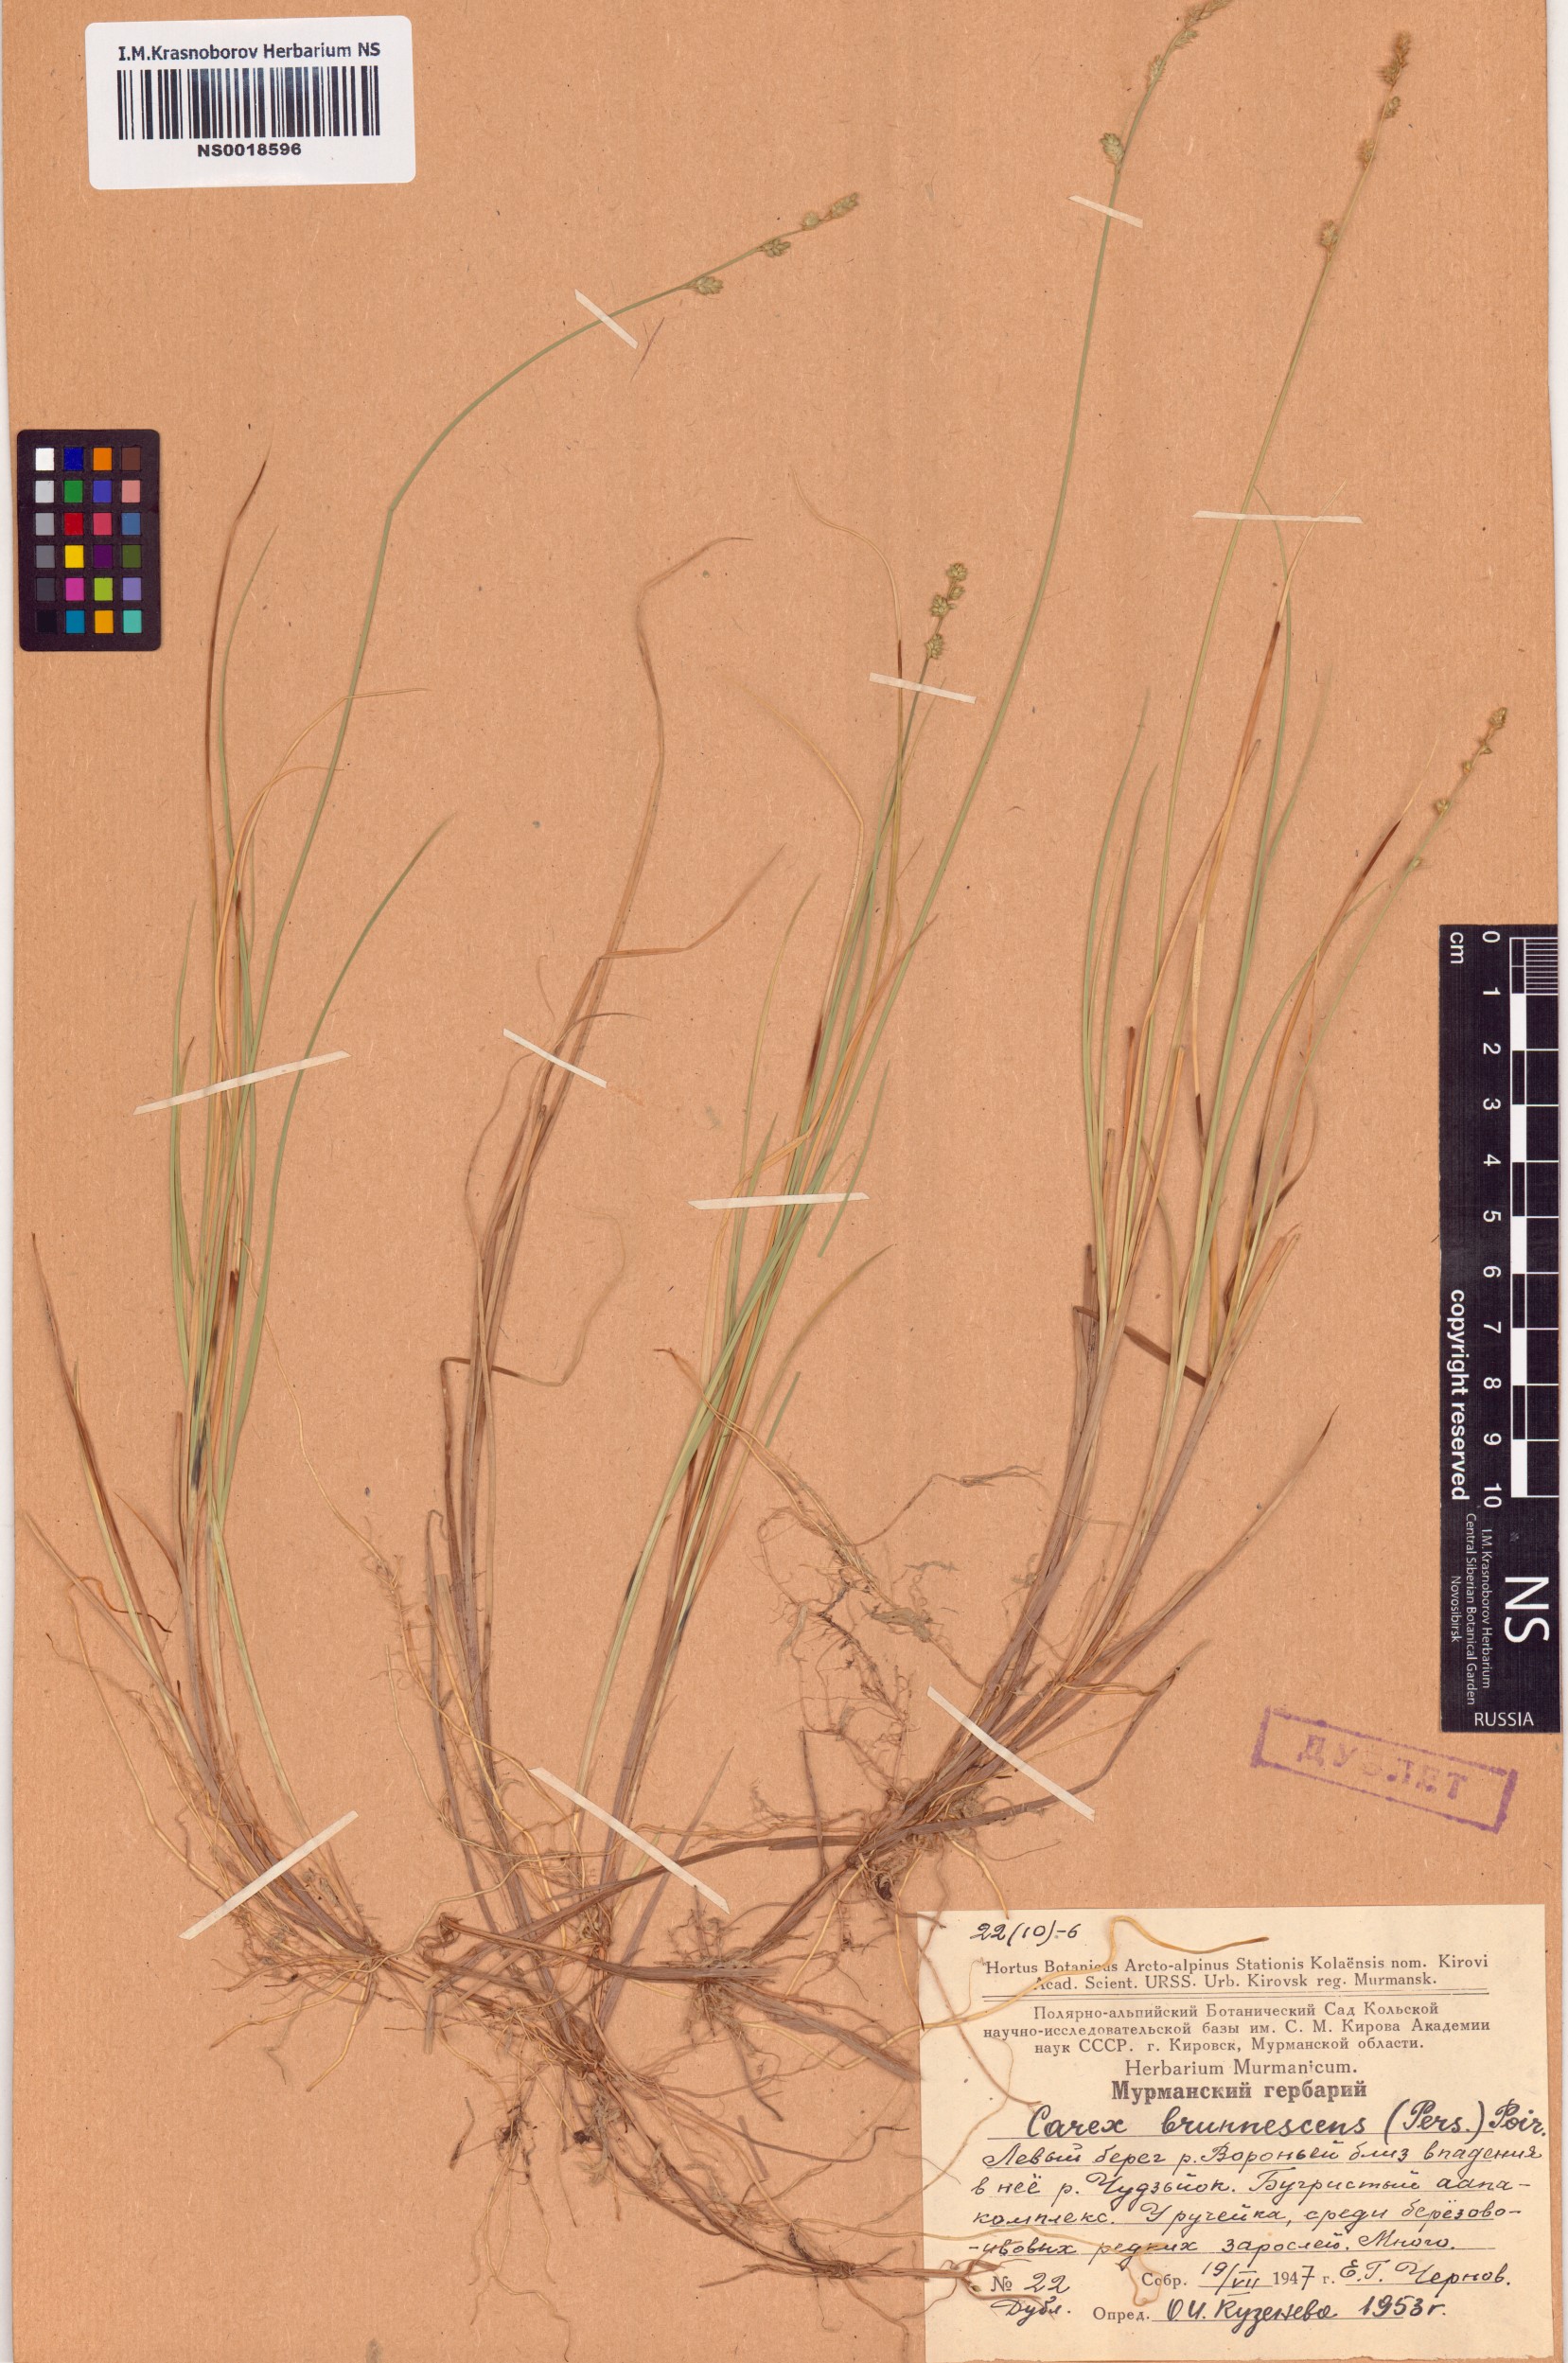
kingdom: Plantae
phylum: Tracheophyta
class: Liliopsida
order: Poales
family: Cyperaceae
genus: Carex
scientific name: Carex brunnescens
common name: Brown sedge
